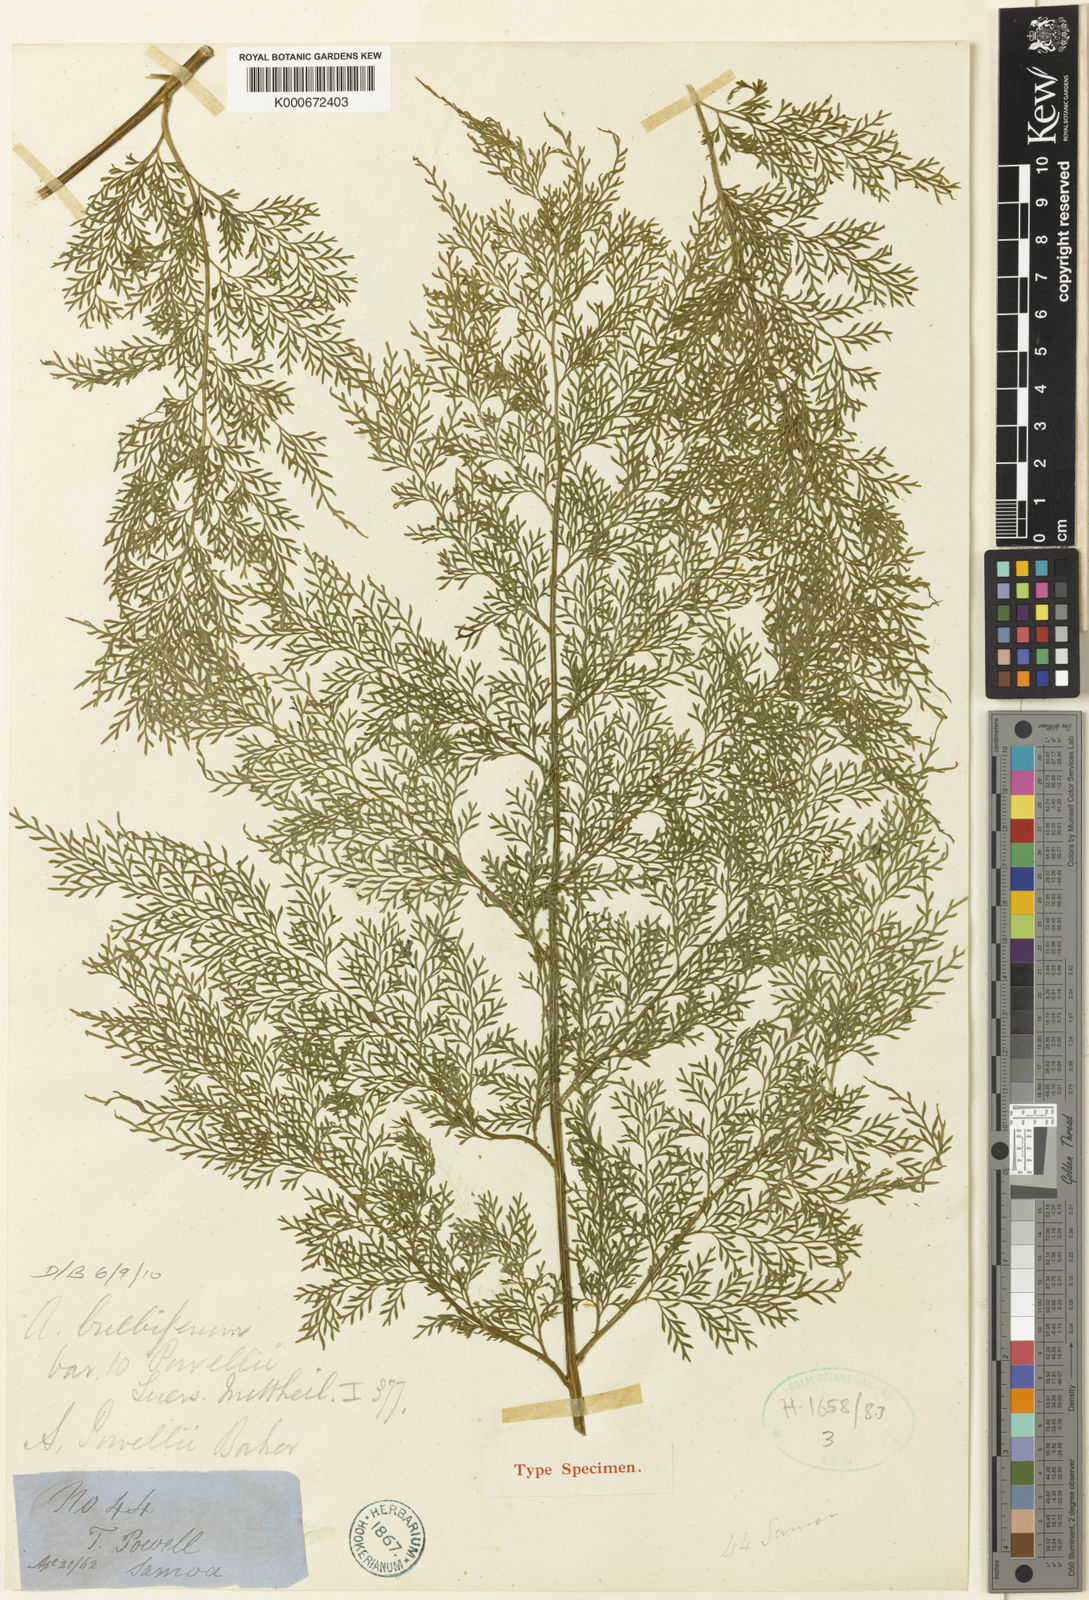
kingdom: Plantae
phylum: Tracheophyta
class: Polypodiopsida
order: Polypodiales
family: Aspleniaceae
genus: Asplenium
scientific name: Asplenium powellii
